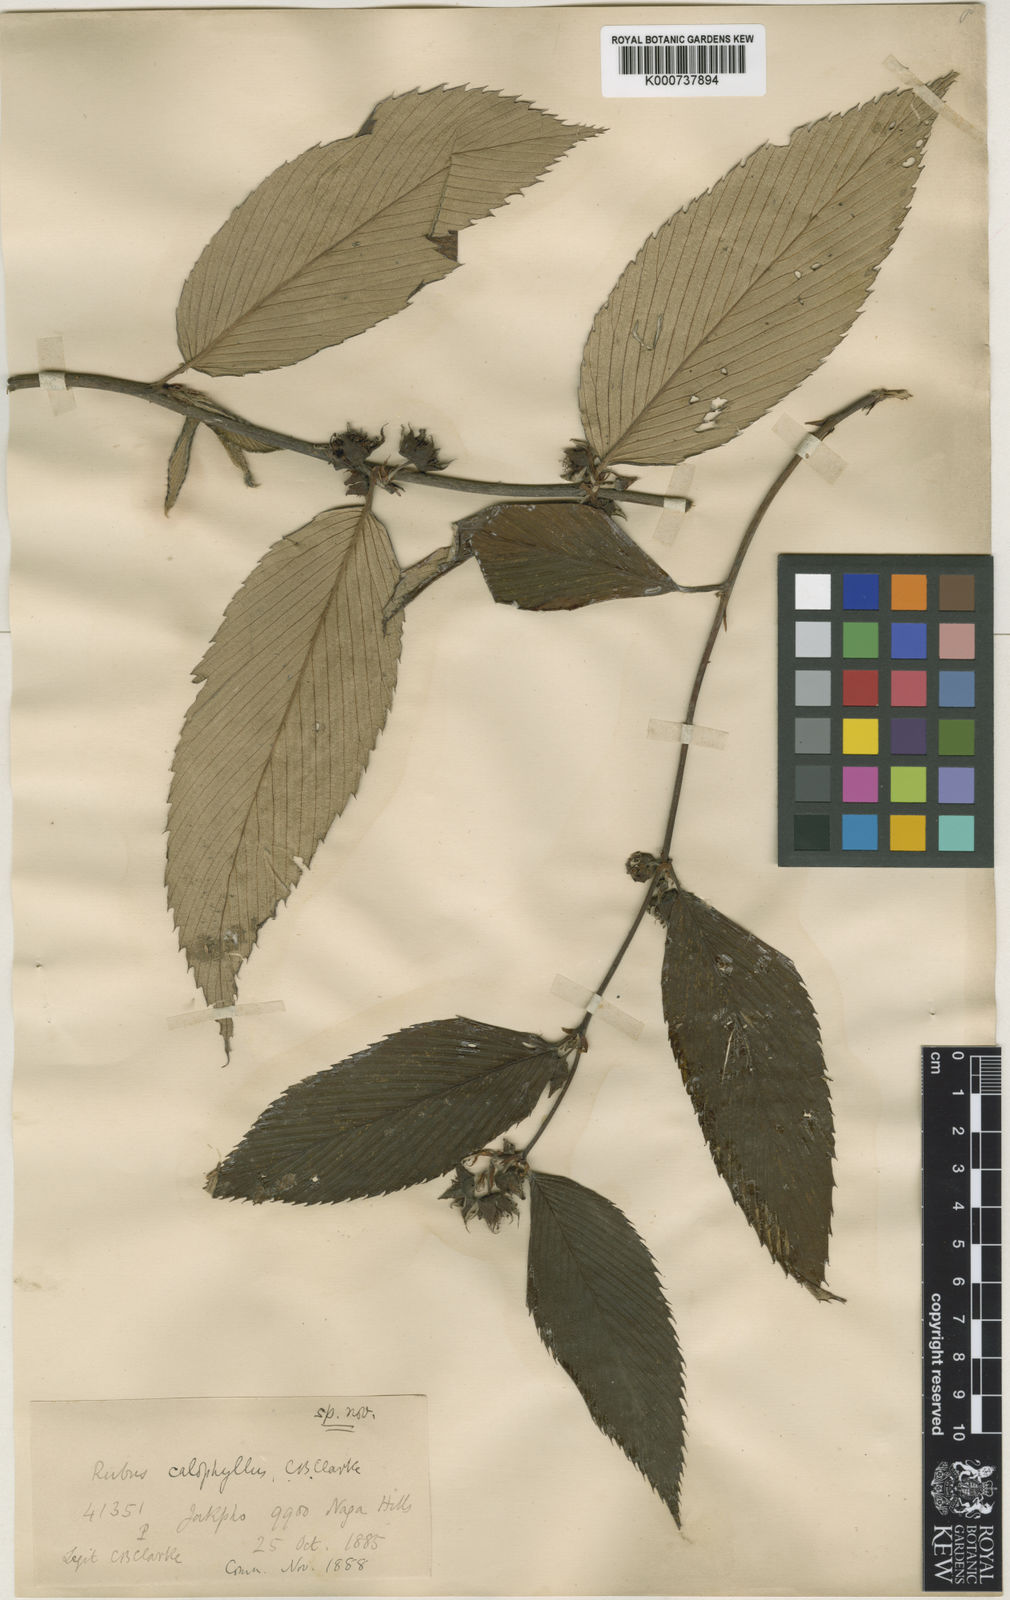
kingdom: Plantae
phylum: Tracheophyta
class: Magnoliopsida
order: Rosales
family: Rosaceae
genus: Rubus
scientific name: Rubus calophyllus
